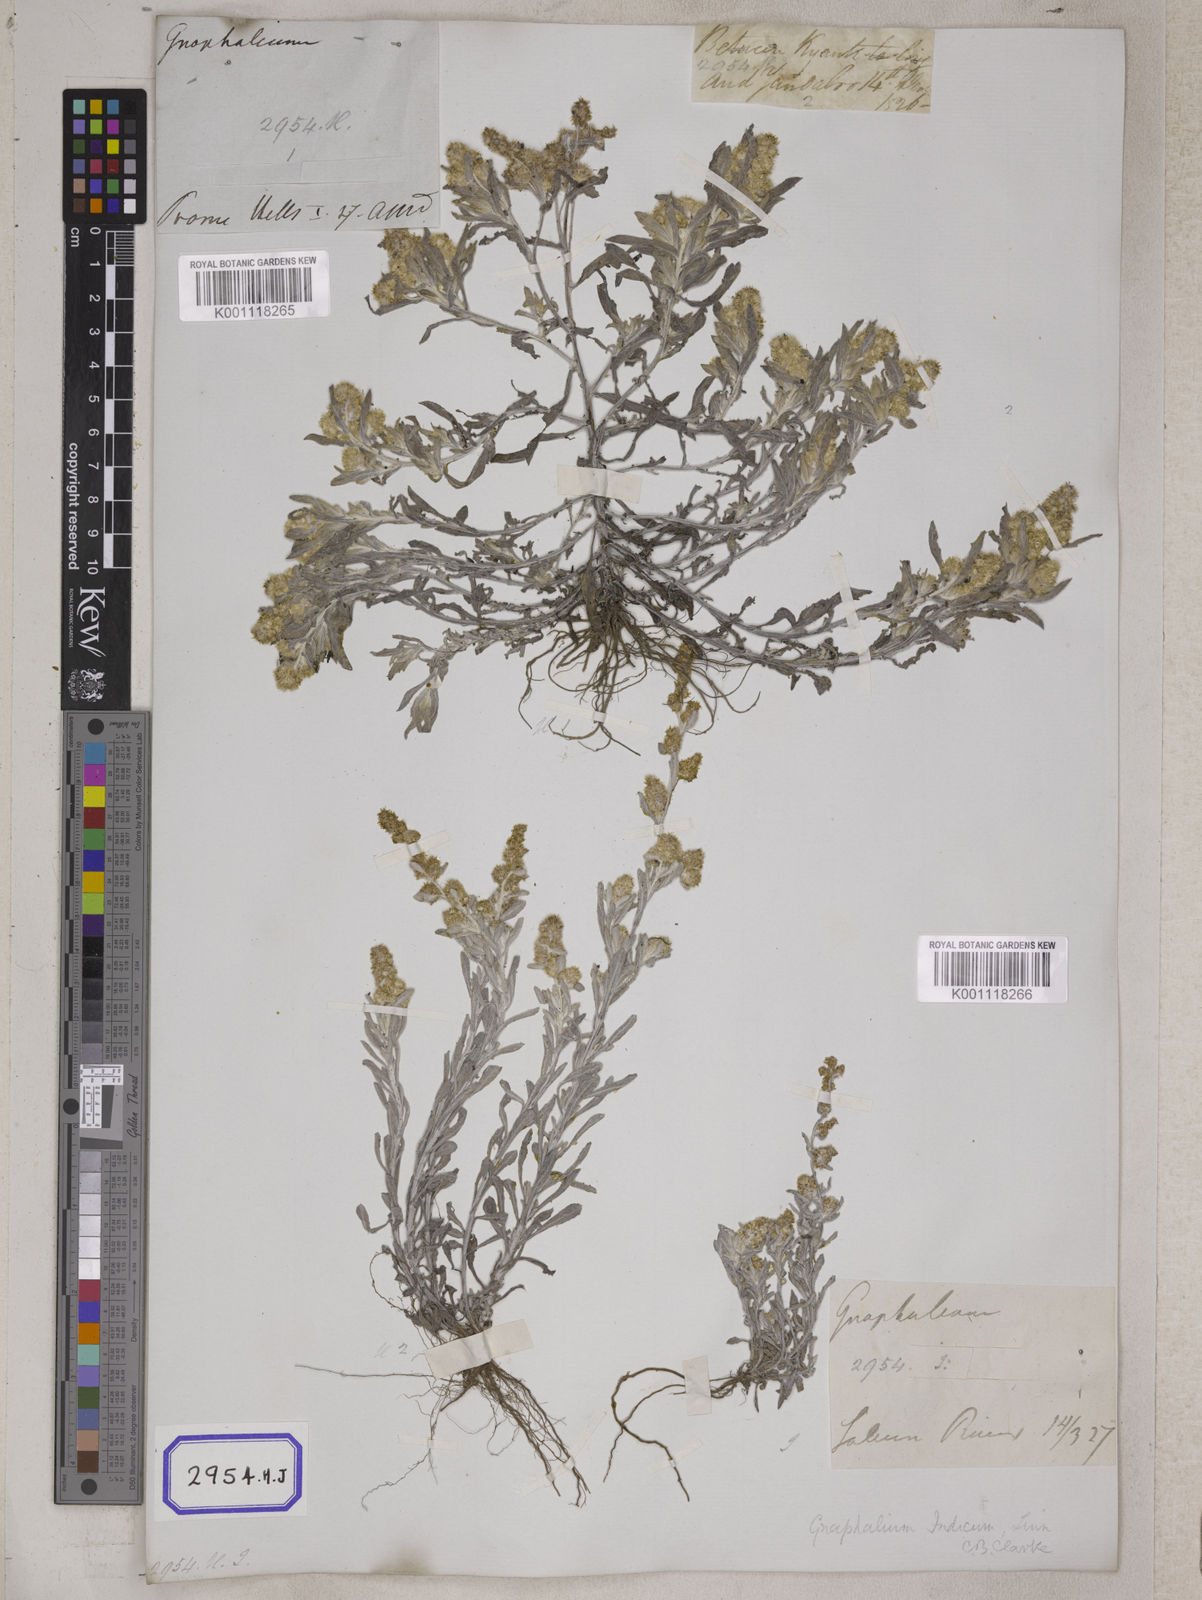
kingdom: Plantae
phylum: Tracheophyta
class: Magnoliopsida
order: Asterales
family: Asteraceae
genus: Helichrysum
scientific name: Helichrysum indicum
